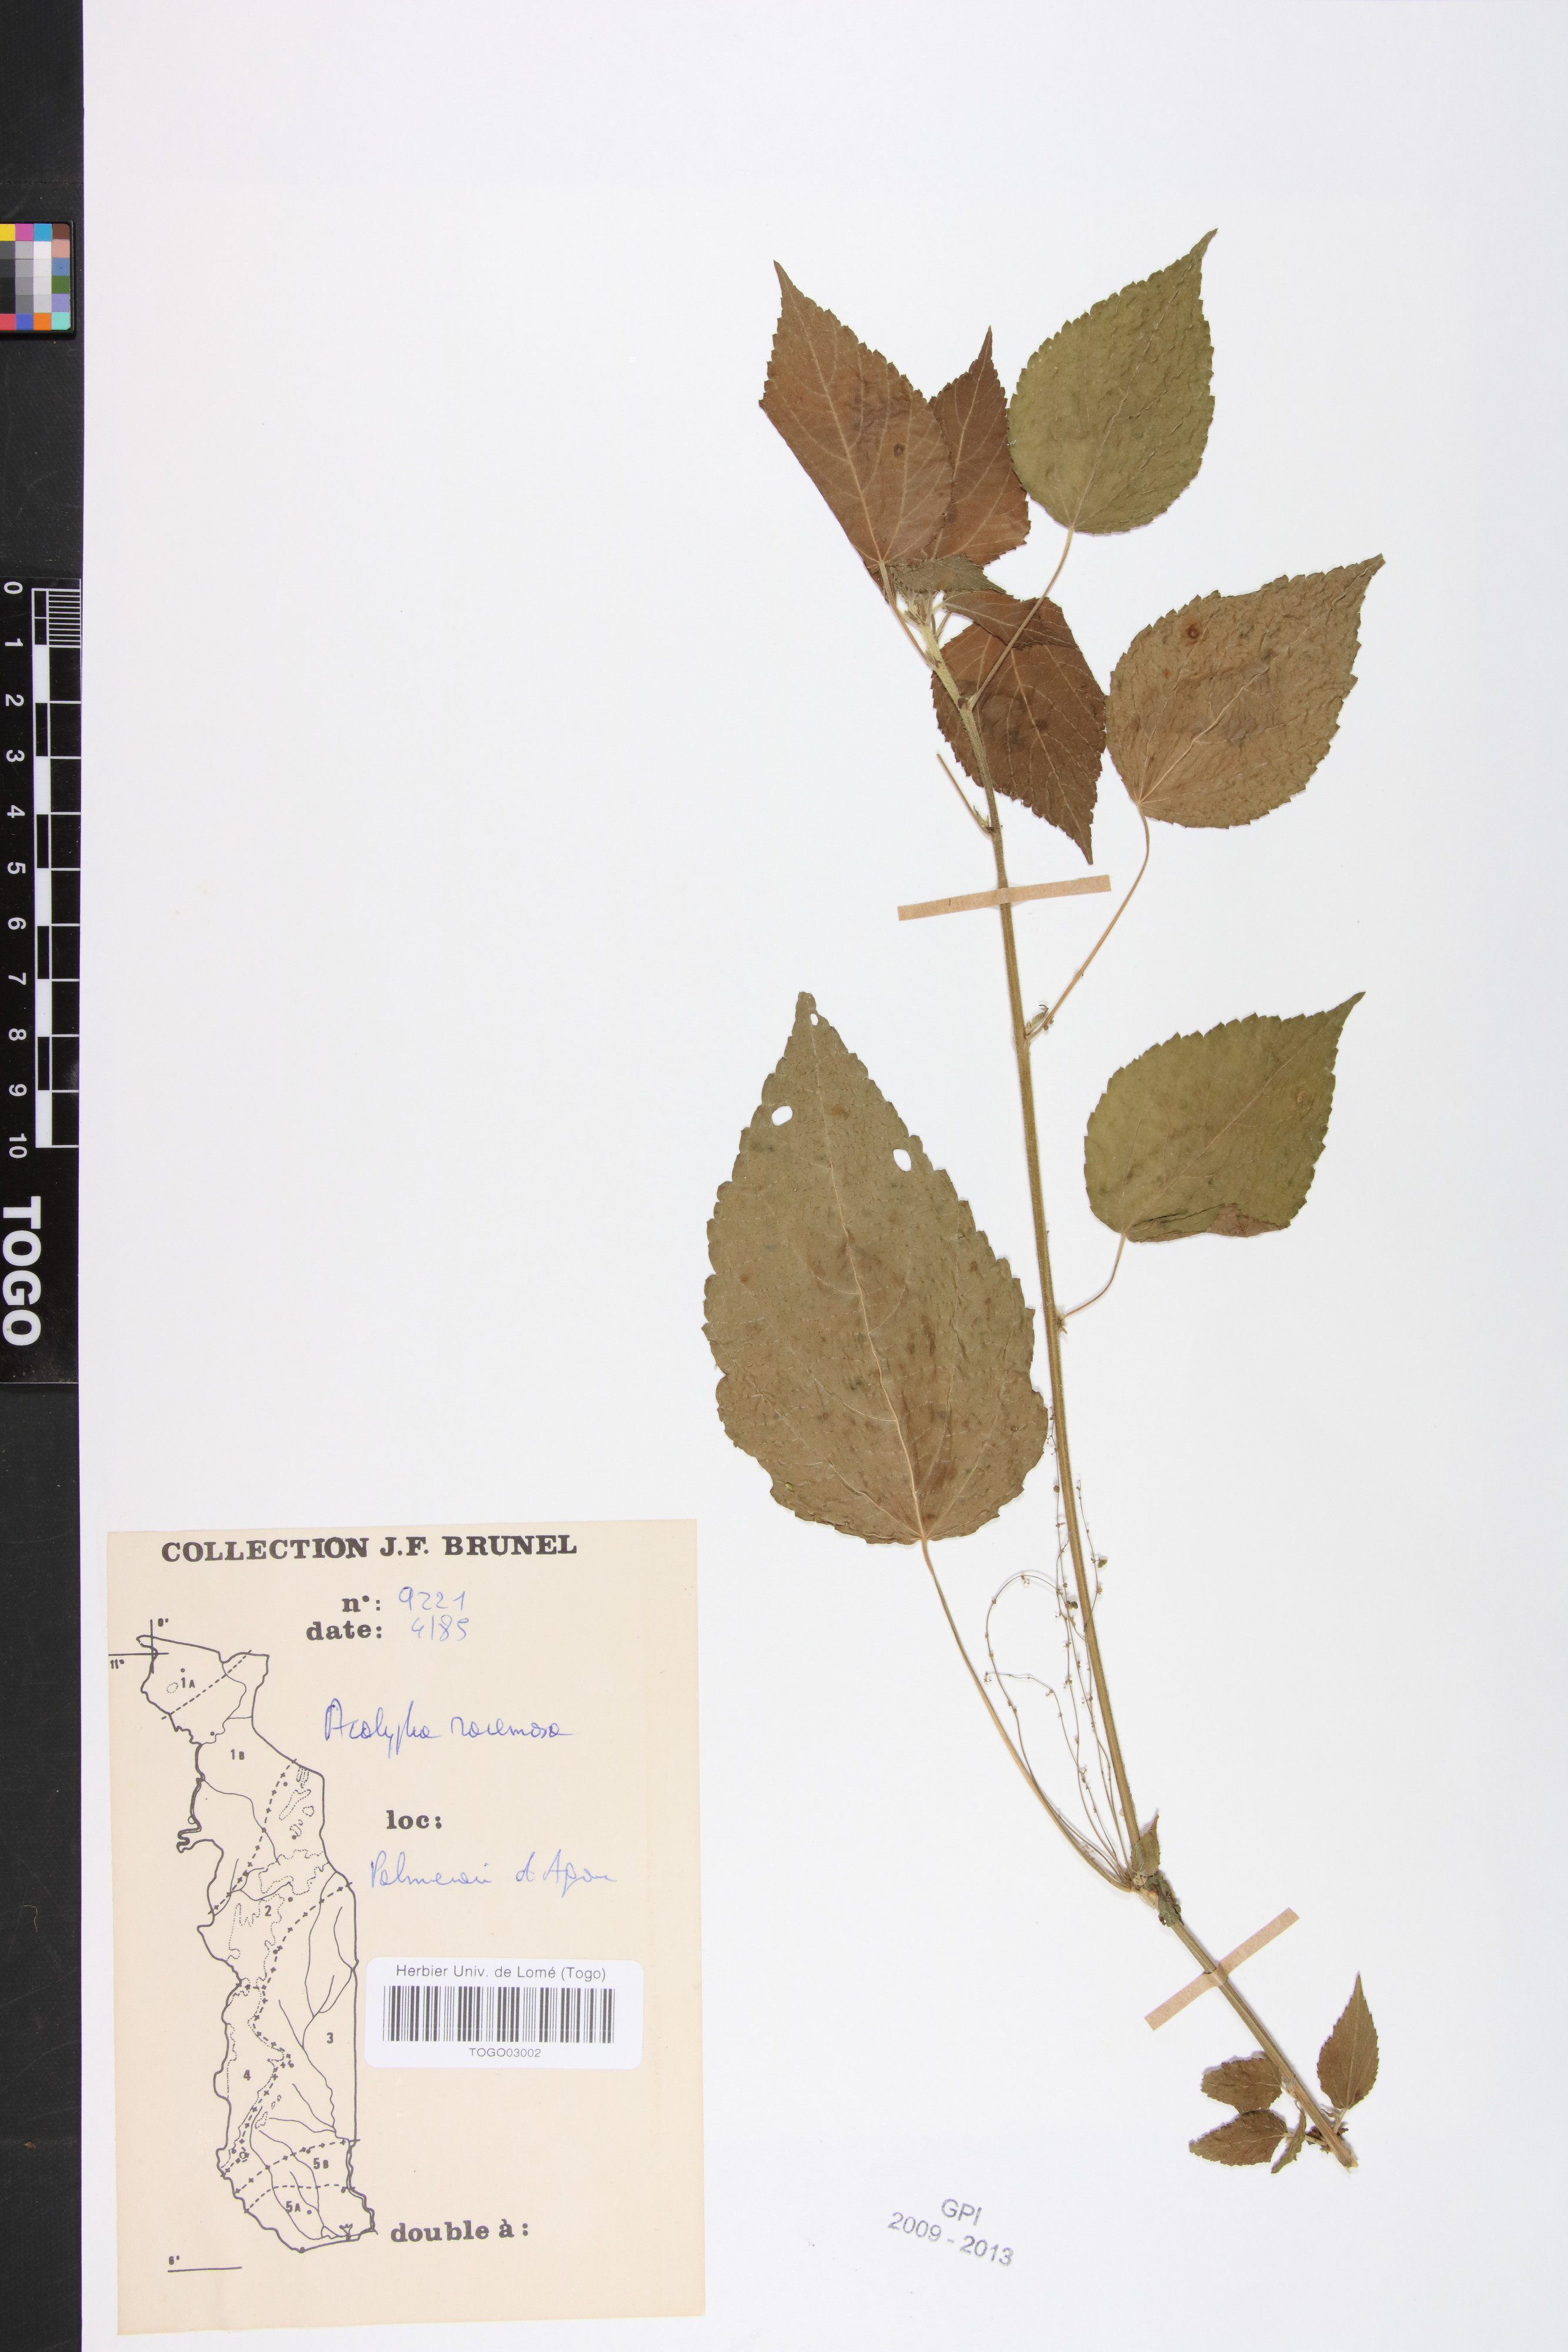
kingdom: Plantae
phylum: Tracheophyta
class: Magnoliopsida
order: Malpighiales
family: Euphorbiaceae
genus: Acalypha
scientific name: Acalypha paniculata
